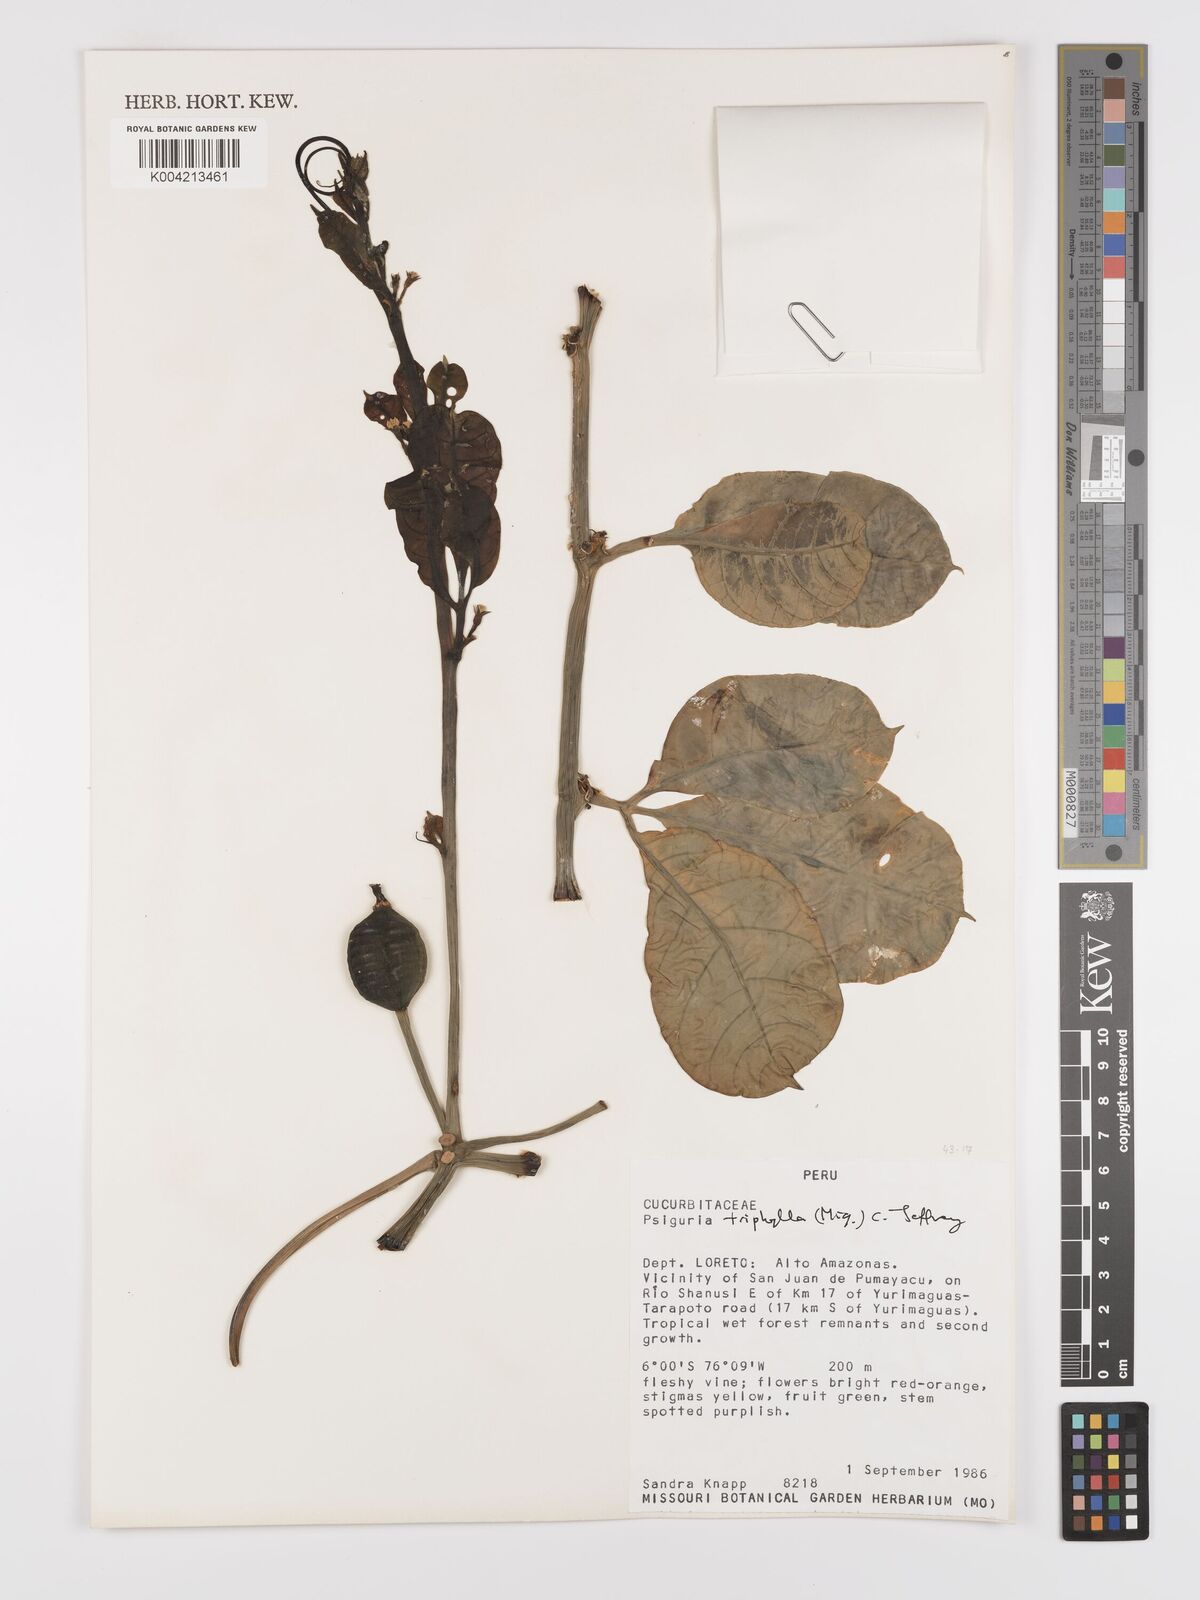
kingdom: Plantae
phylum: Tracheophyta
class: Magnoliopsida
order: Cucurbitales
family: Cucurbitaceae
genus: Psiguria
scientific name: Psiguria triphylla
